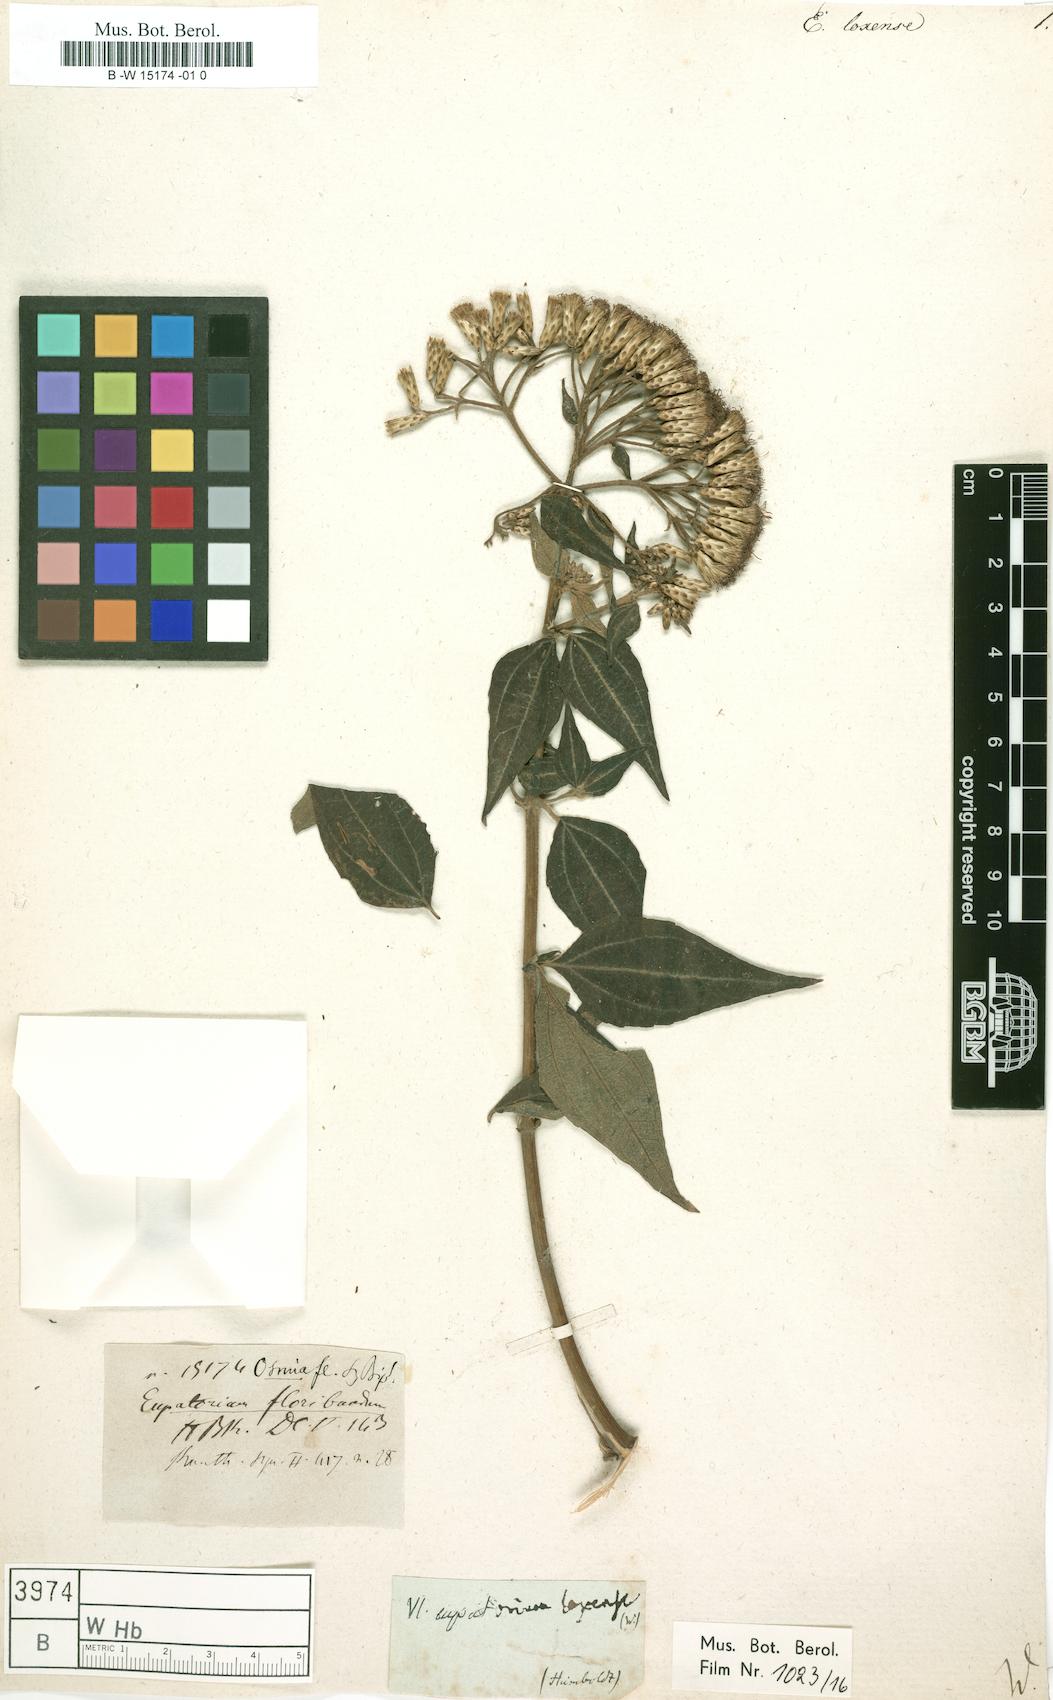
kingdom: Plantae
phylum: Tracheophyta
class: Magnoliopsida
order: Asterales
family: Asteraceae
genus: Ageratina
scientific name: Ageratina fastigiata
